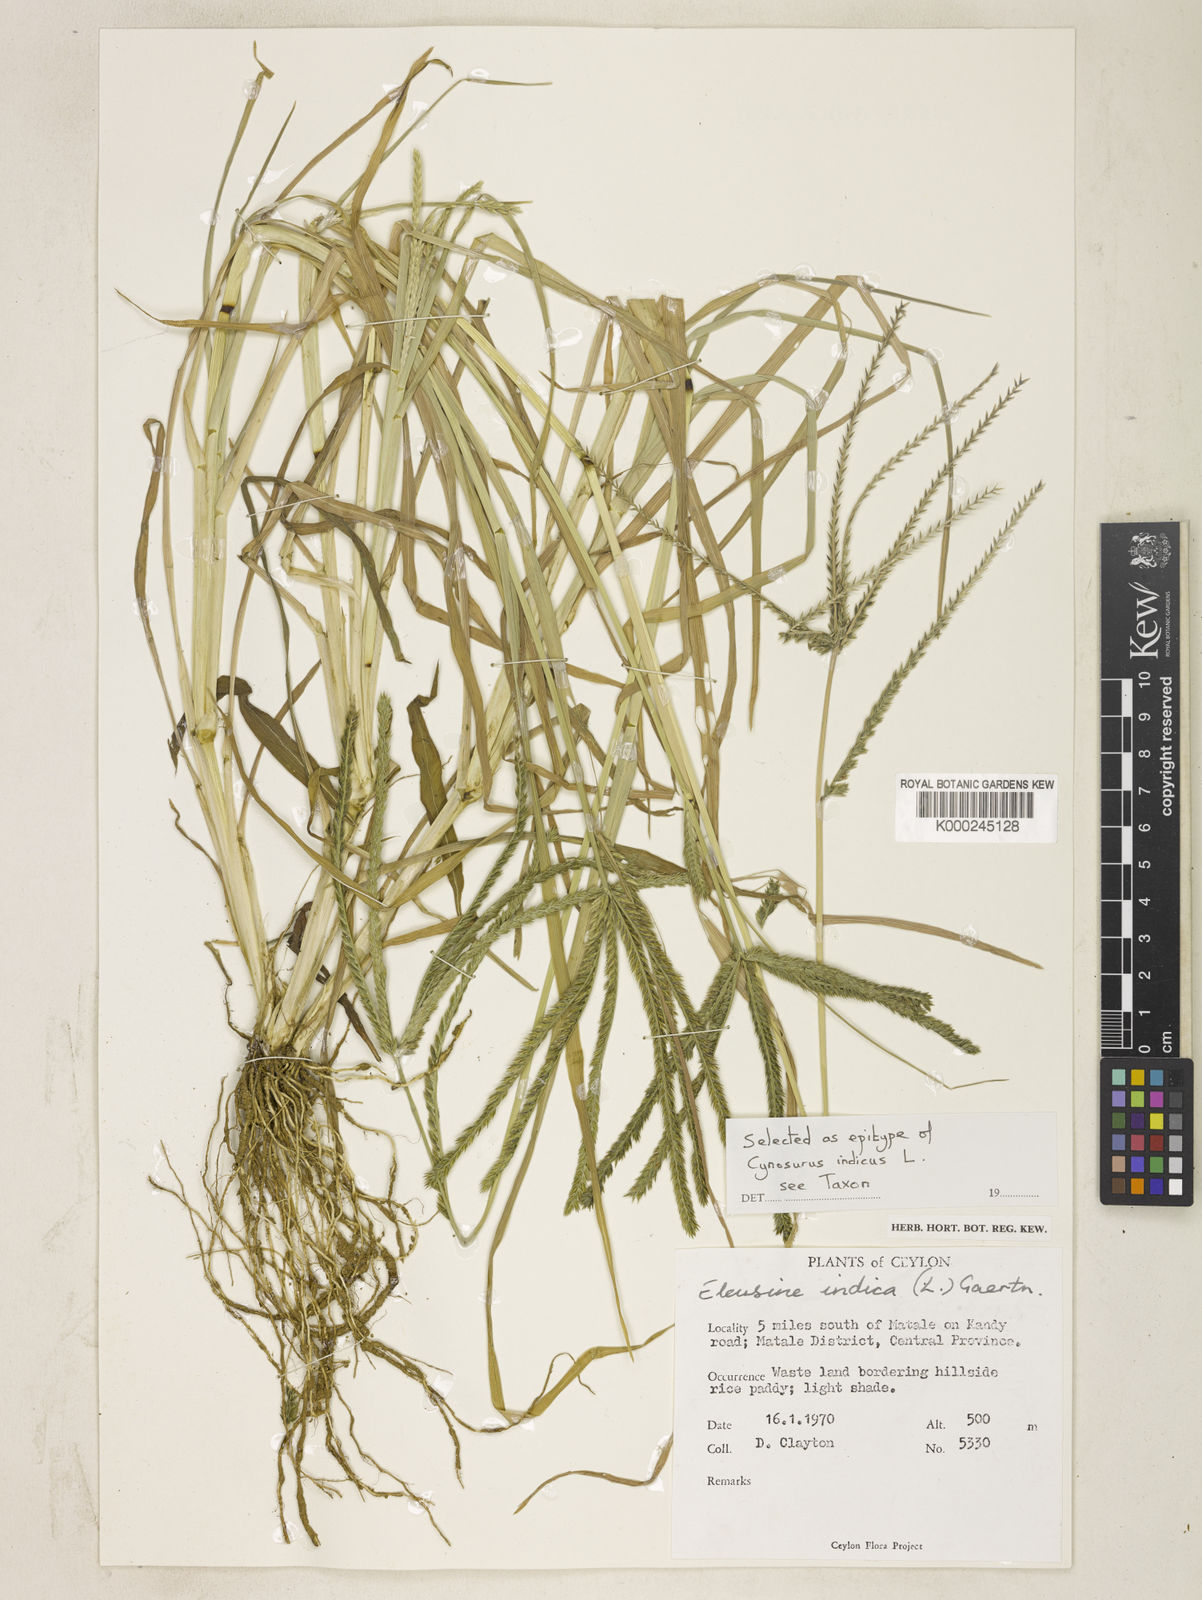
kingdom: Plantae
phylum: Tracheophyta
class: Liliopsida
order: Poales
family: Poaceae
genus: Eleusine
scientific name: Eleusine indica
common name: Yard-grass
